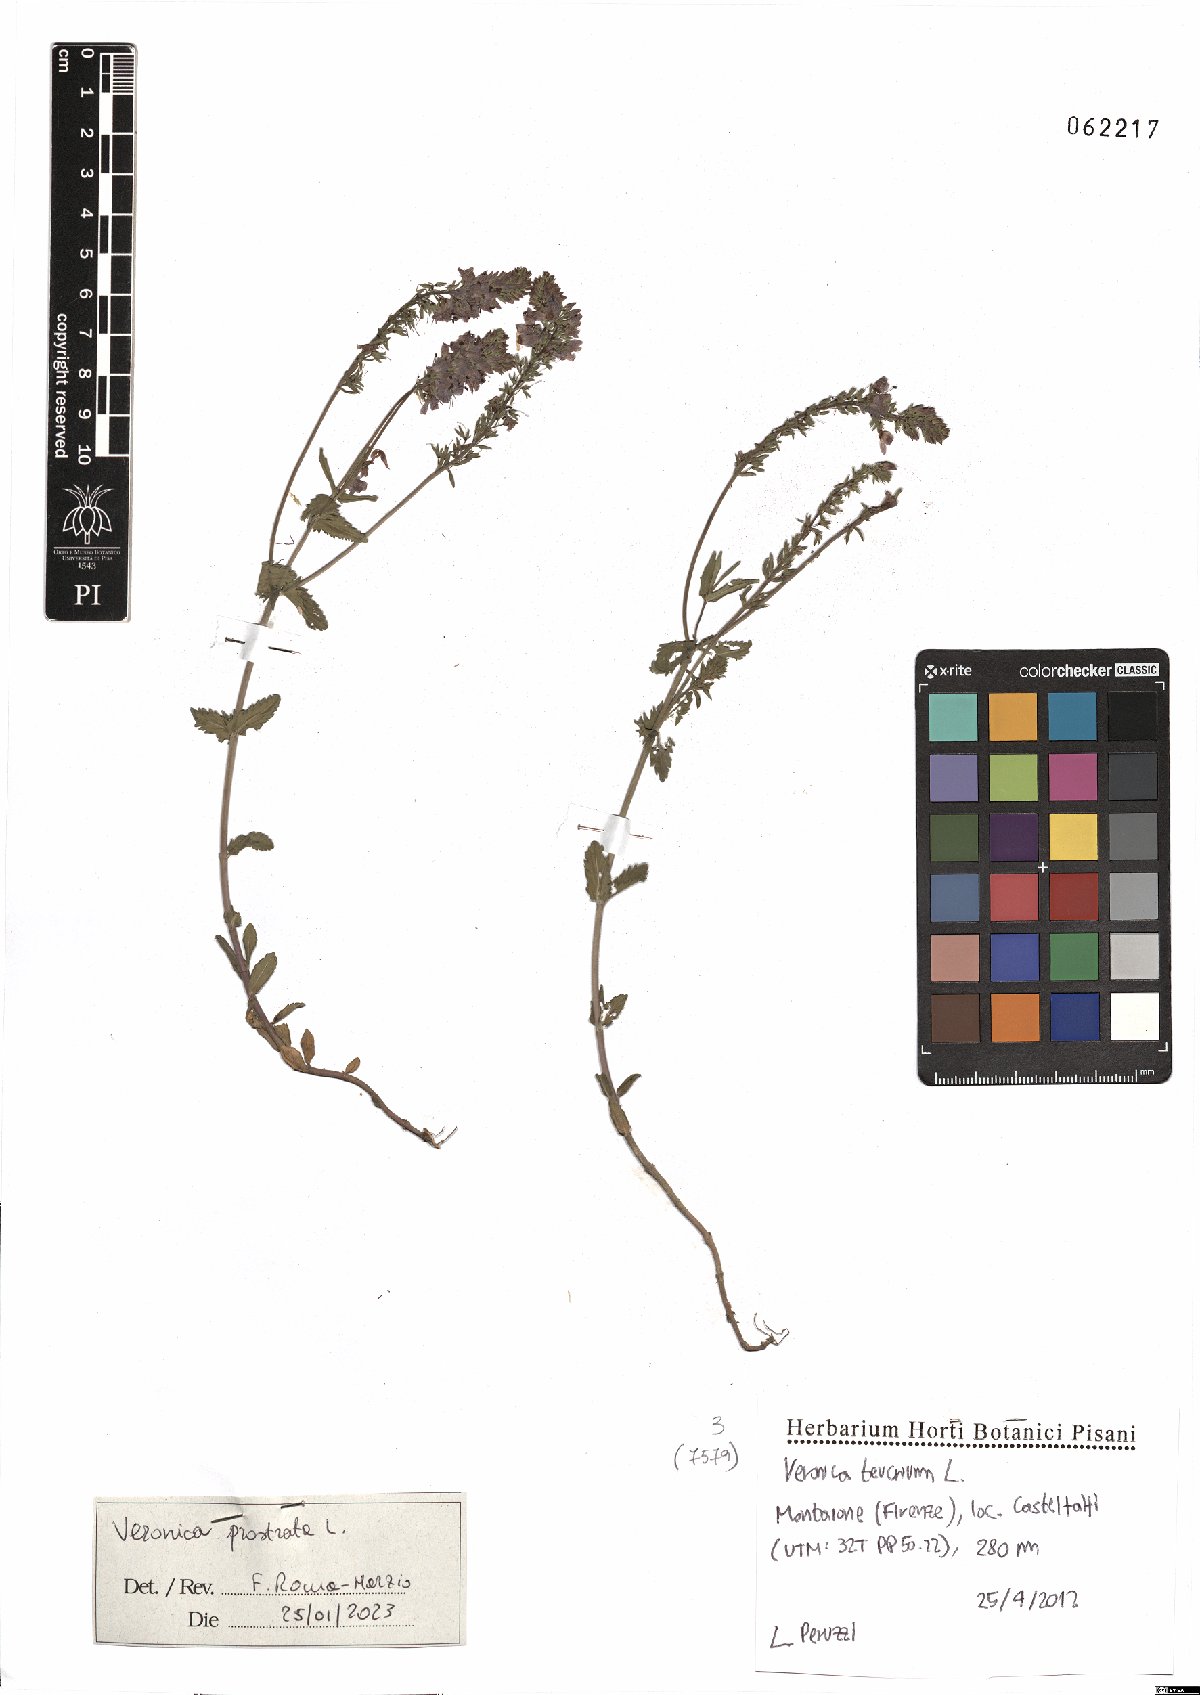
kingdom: Plantae
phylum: Tracheophyta
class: Magnoliopsida
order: Lamiales
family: Plantaginaceae
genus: Veronica
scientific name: Veronica prostrata
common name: Prostrate speedwell
